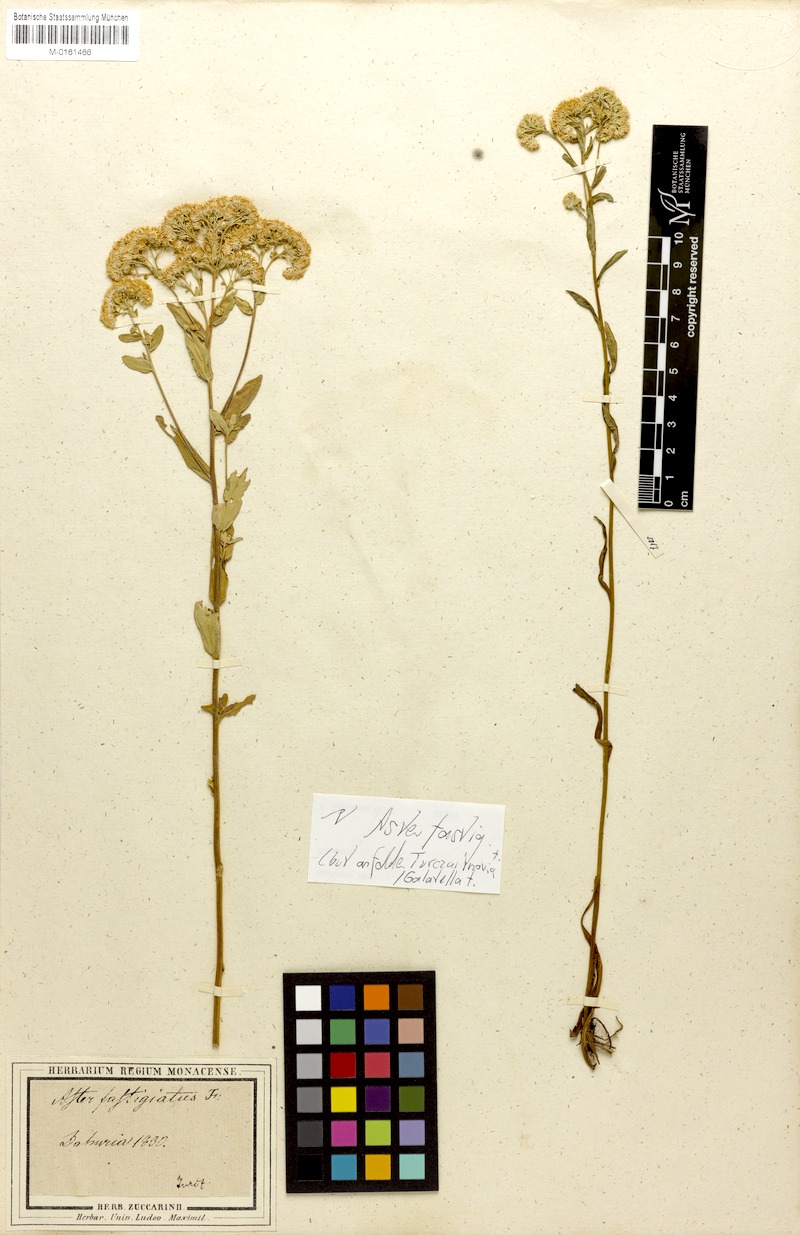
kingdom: Plantae
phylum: Tracheophyta
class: Magnoliopsida
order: Asterales
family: Asteraceae
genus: Turczaninovia
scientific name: Turczaninovia fastigiata
